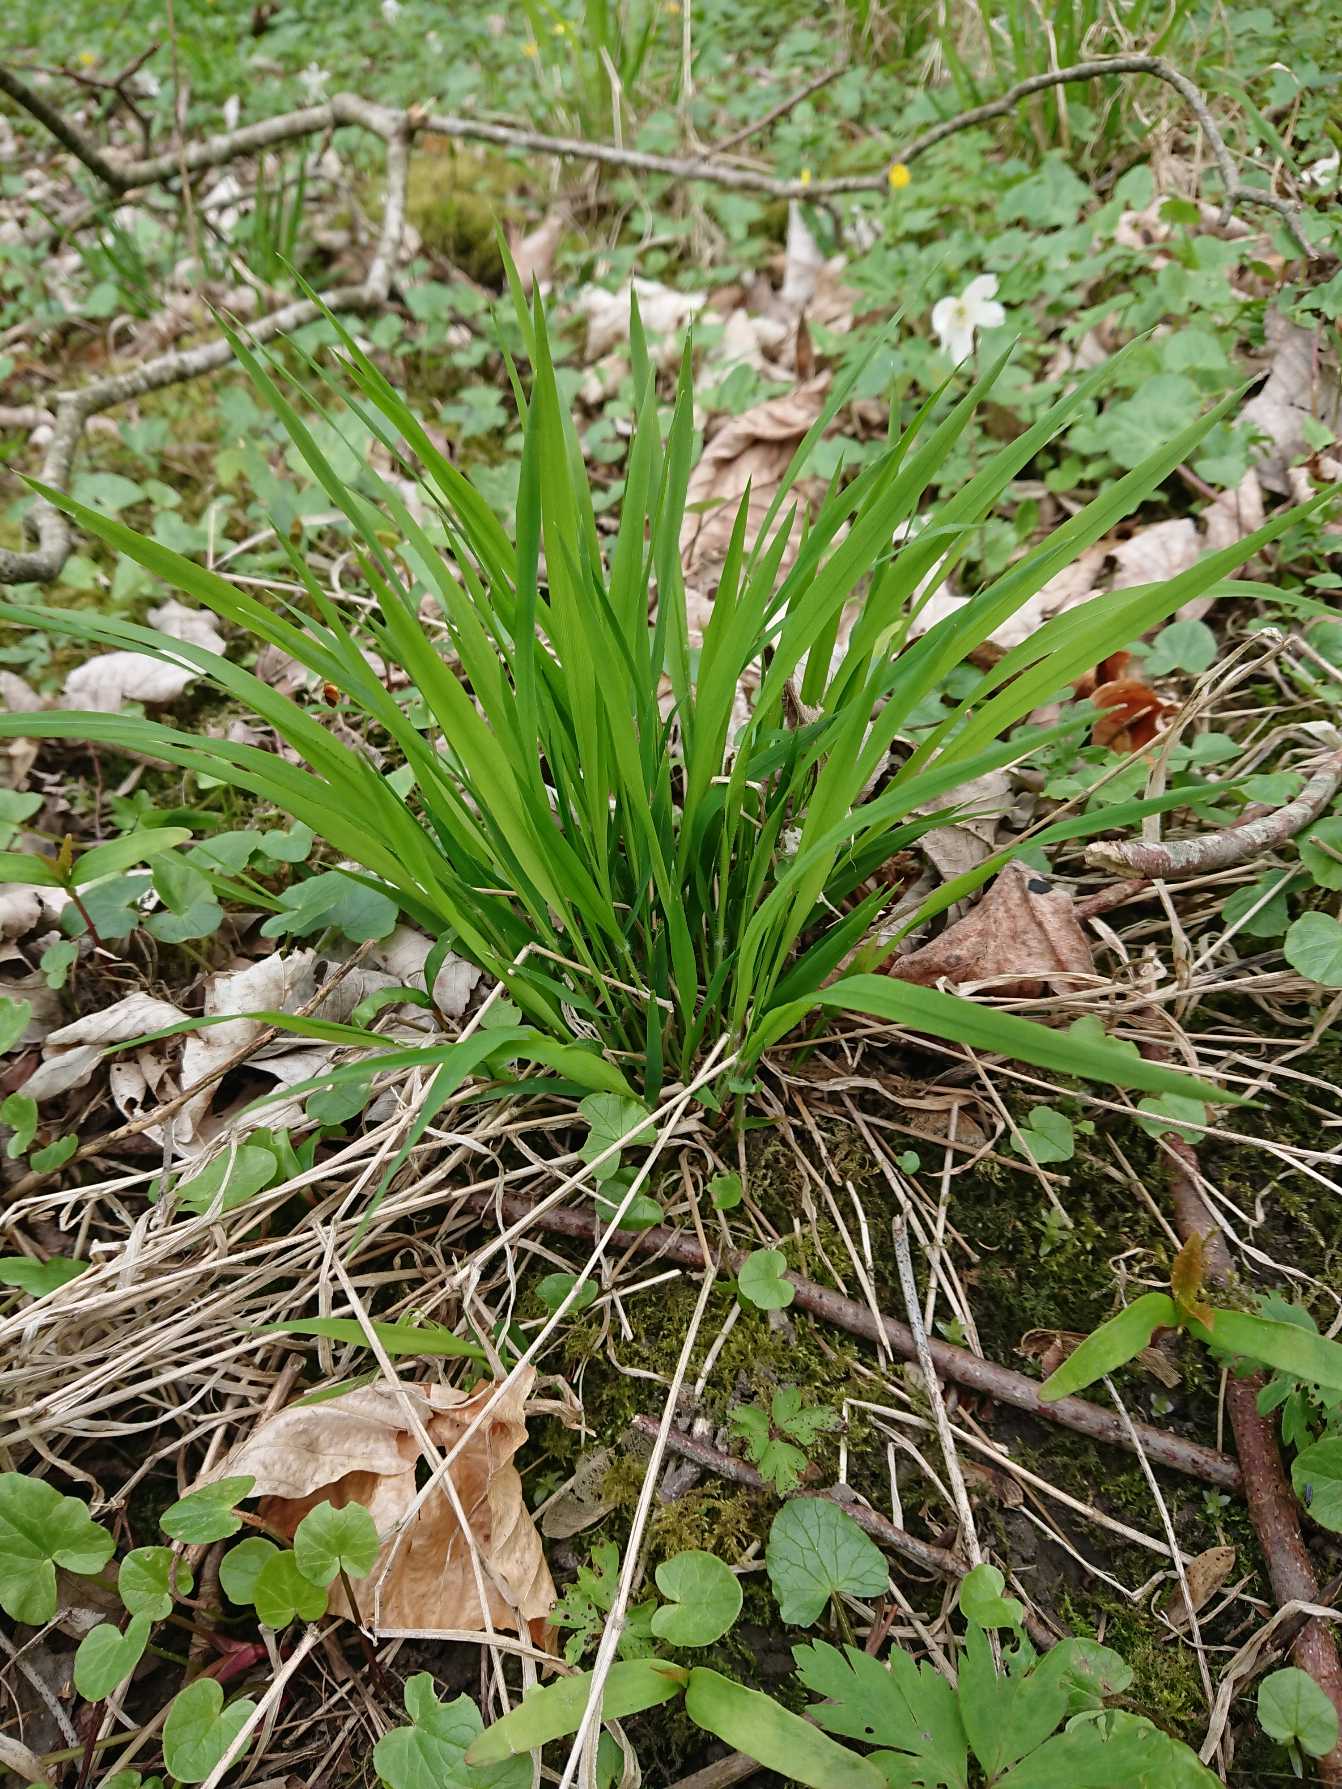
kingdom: Plantae
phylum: Tracheophyta
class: Liliopsida
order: Poales
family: Poaceae
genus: Brachypodium
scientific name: Brachypodium sylvaticum
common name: Skov-stilkaks
